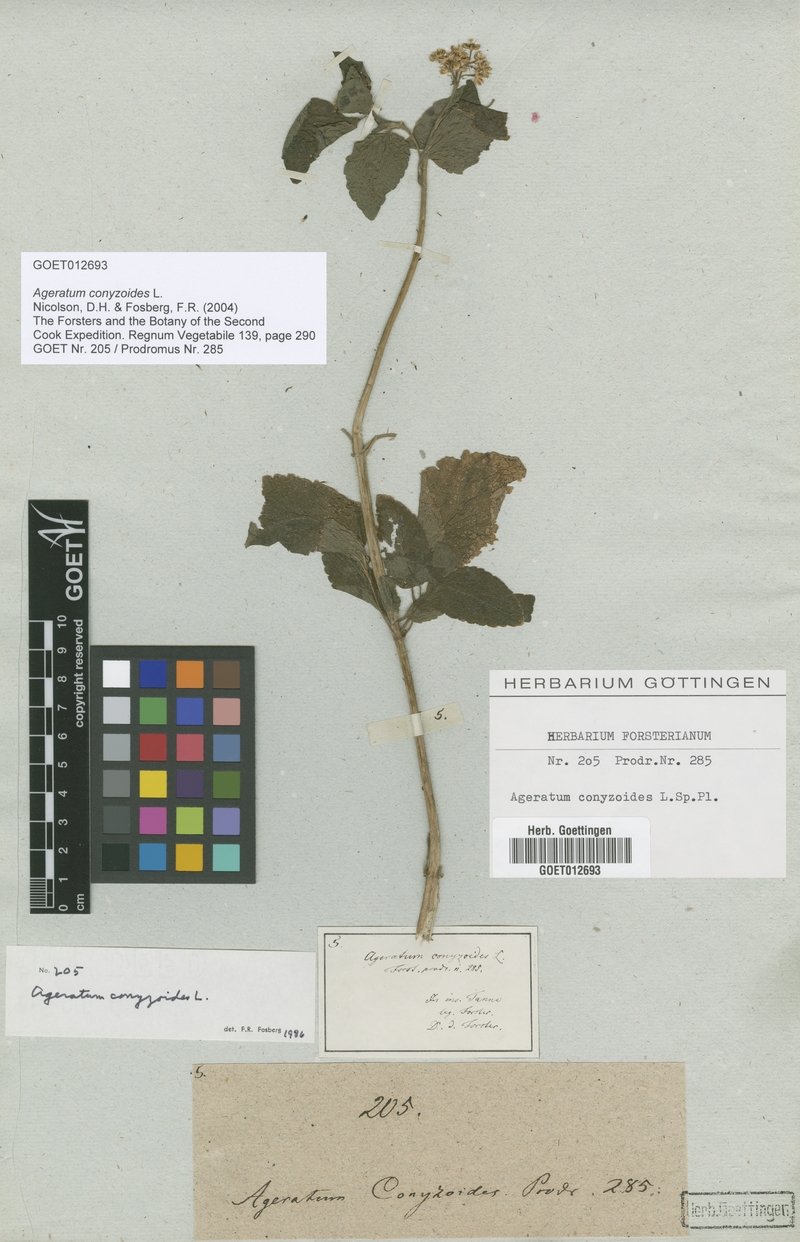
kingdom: Plantae
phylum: Tracheophyta
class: Magnoliopsida
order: Asterales
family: Asteraceae
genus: Ageratum
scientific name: Ageratum conyzoides
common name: Tropical whiteweed
